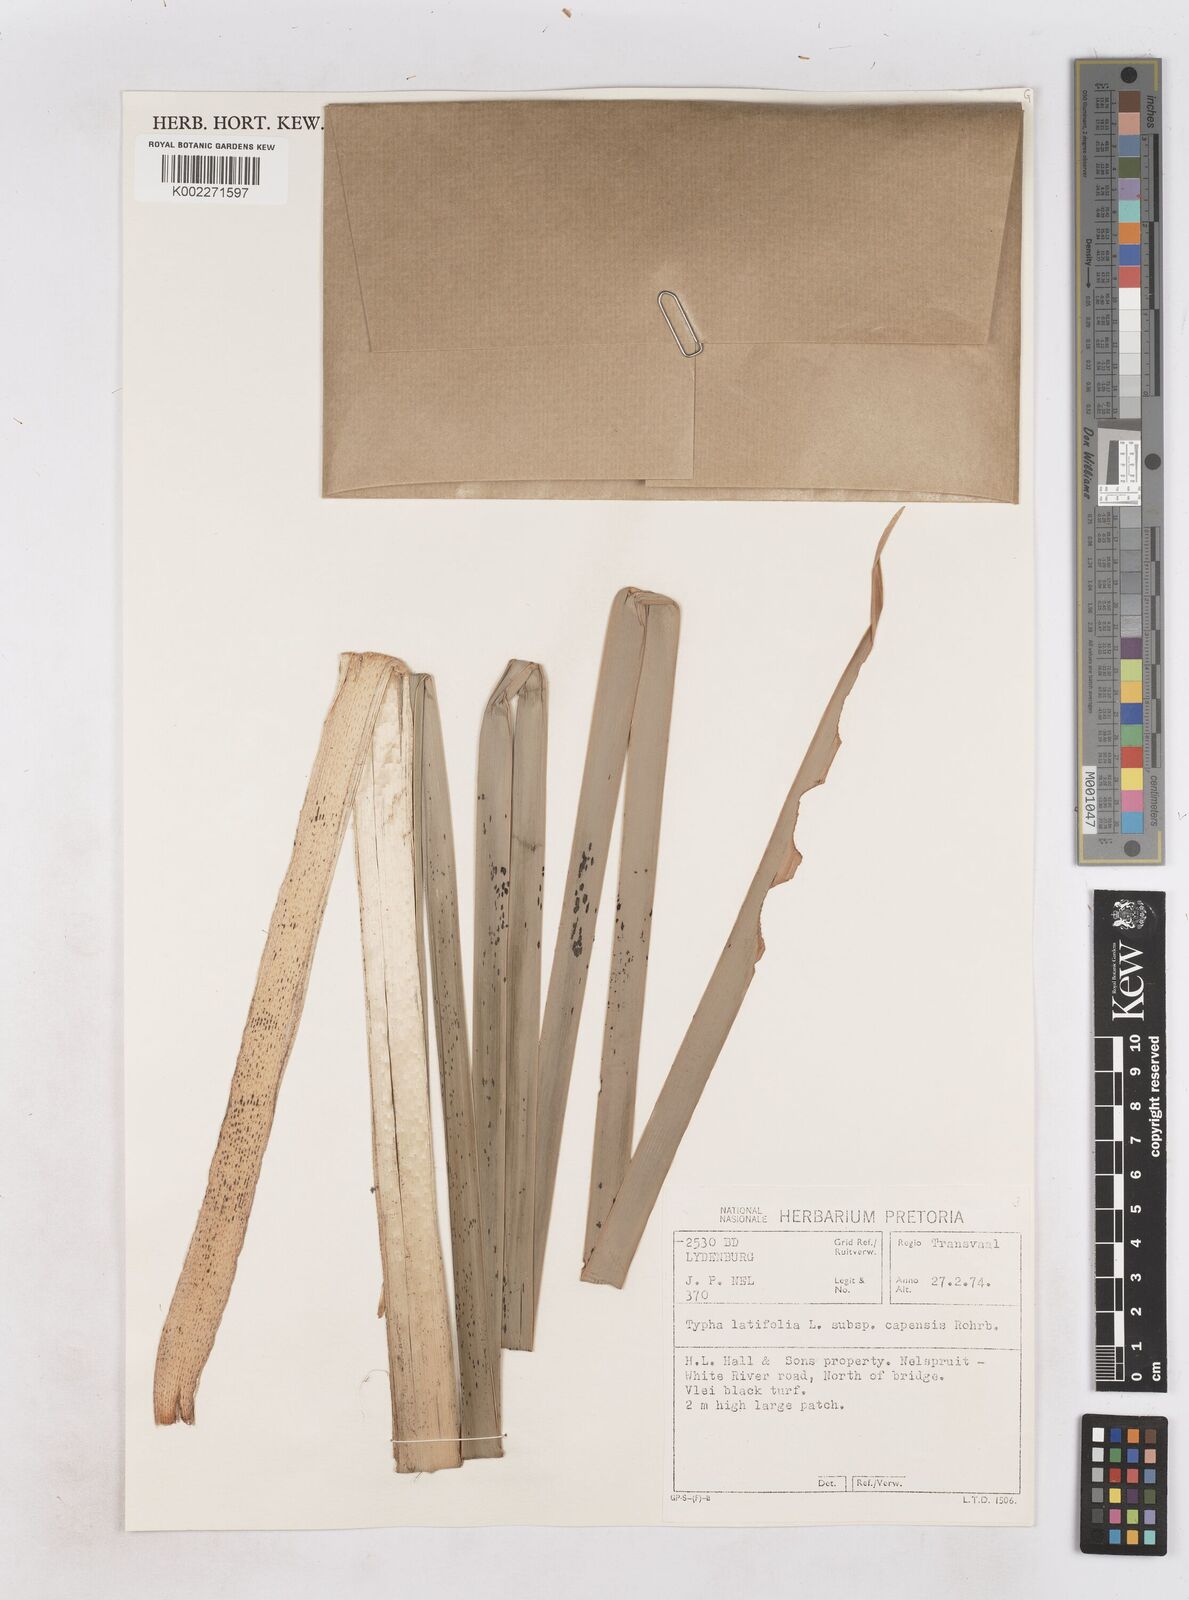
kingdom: Plantae
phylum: Tracheophyta
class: Liliopsida
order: Poales
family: Typhaceae
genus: Typha
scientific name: Typha capensis
